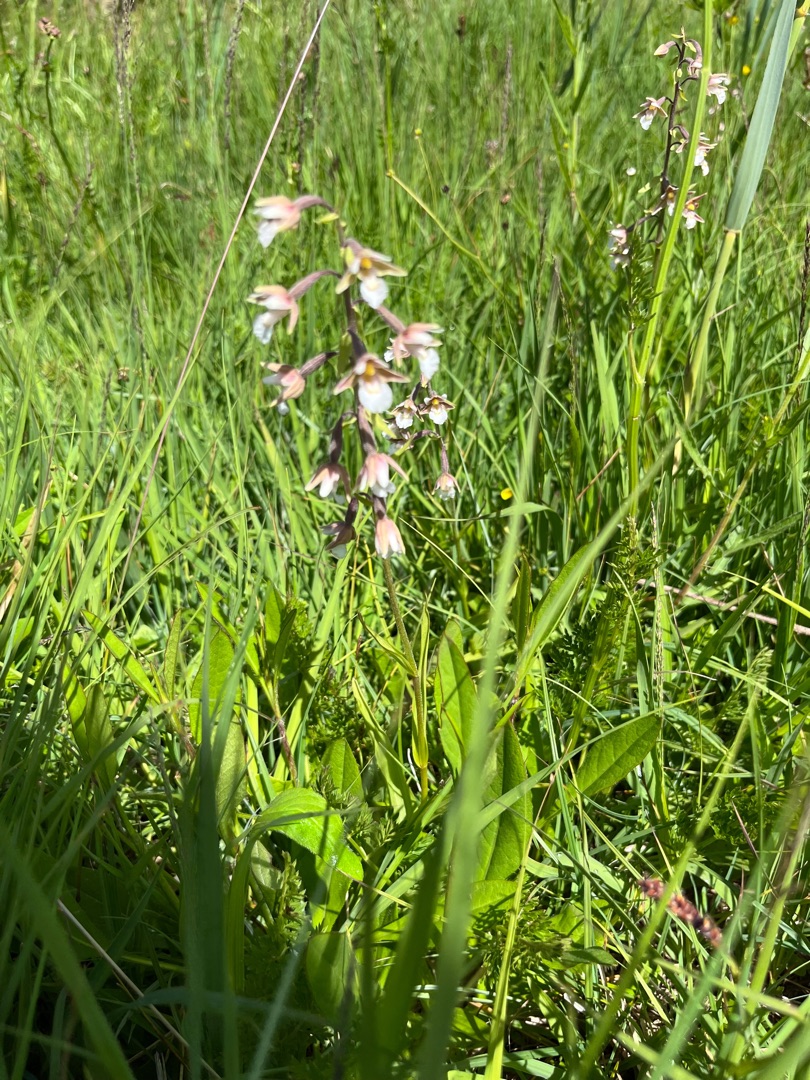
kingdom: Plantae
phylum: Tracheophyta
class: Liliopsida
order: Asparagales
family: Orchidaceae
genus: Epipactis
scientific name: Epipactis palustris
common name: Sump-hullæbe
